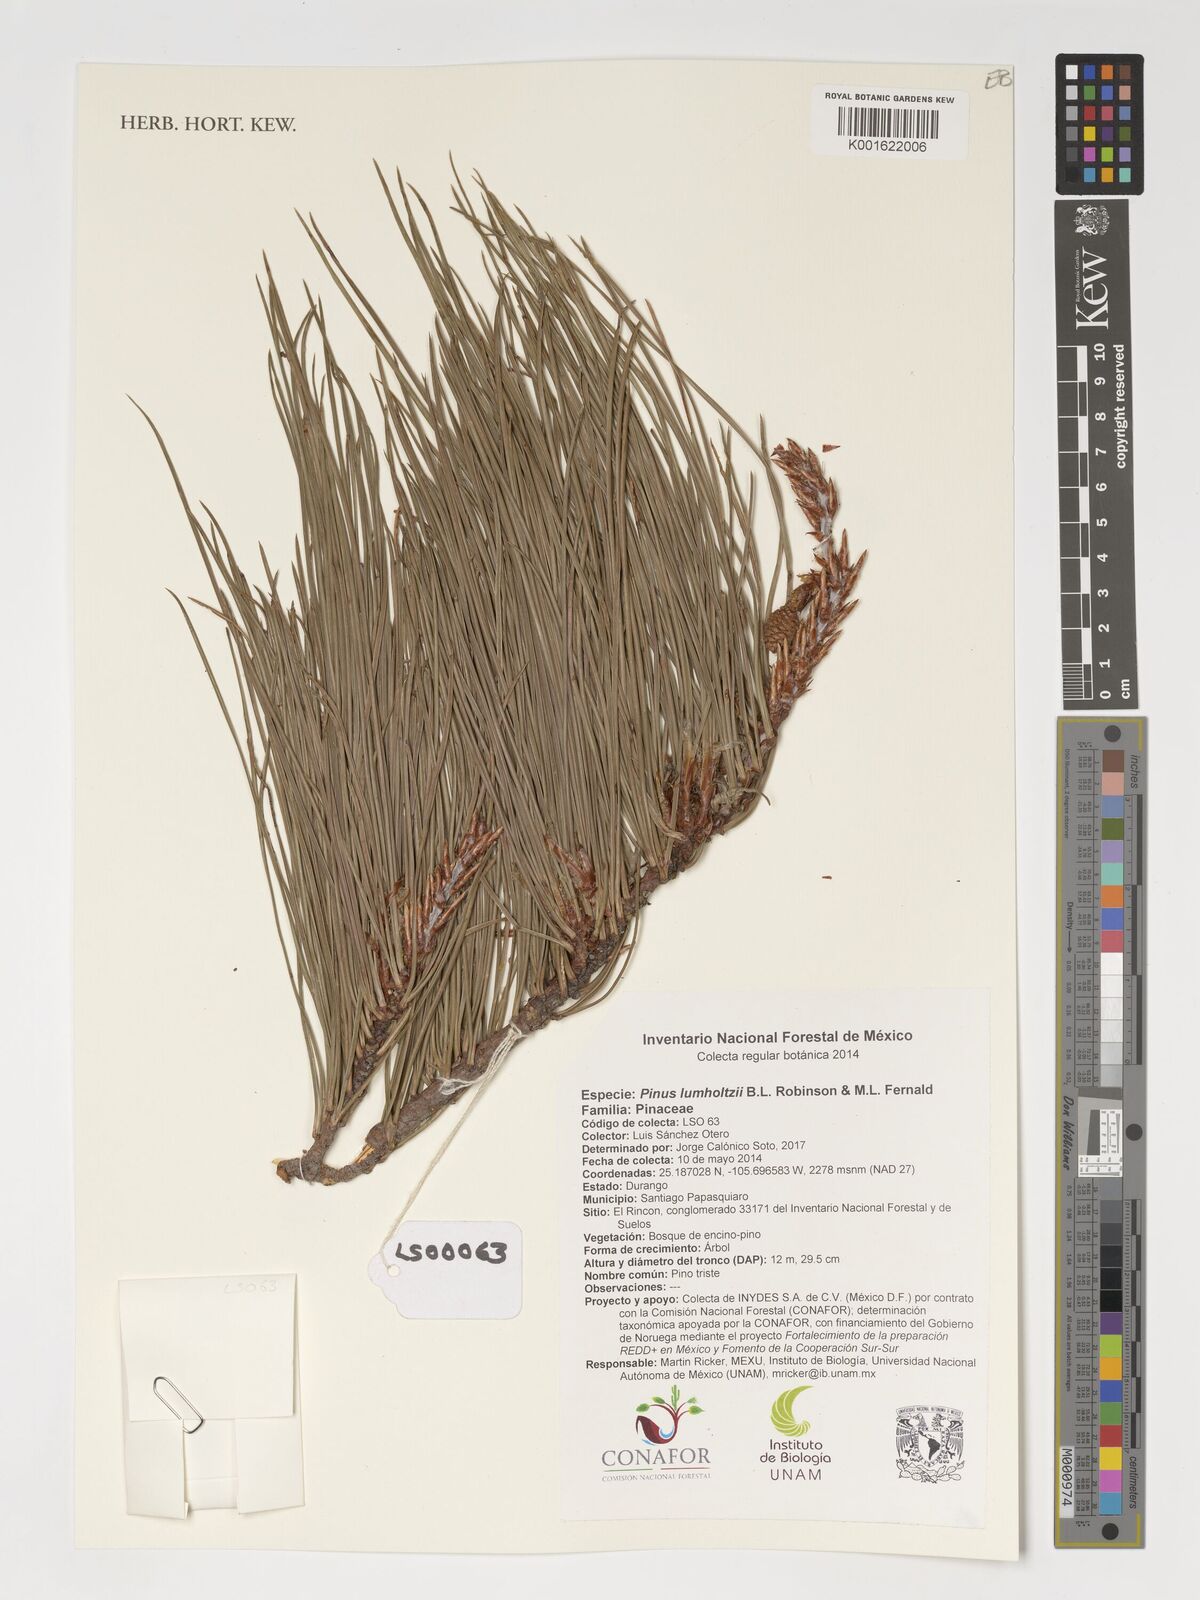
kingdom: Plantae
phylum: Tracheophyta
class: Pinopsida
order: Pinales
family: Pinaceae
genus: Pinus
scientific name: Pinus lumholtzii
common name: Lumholtz's pine
